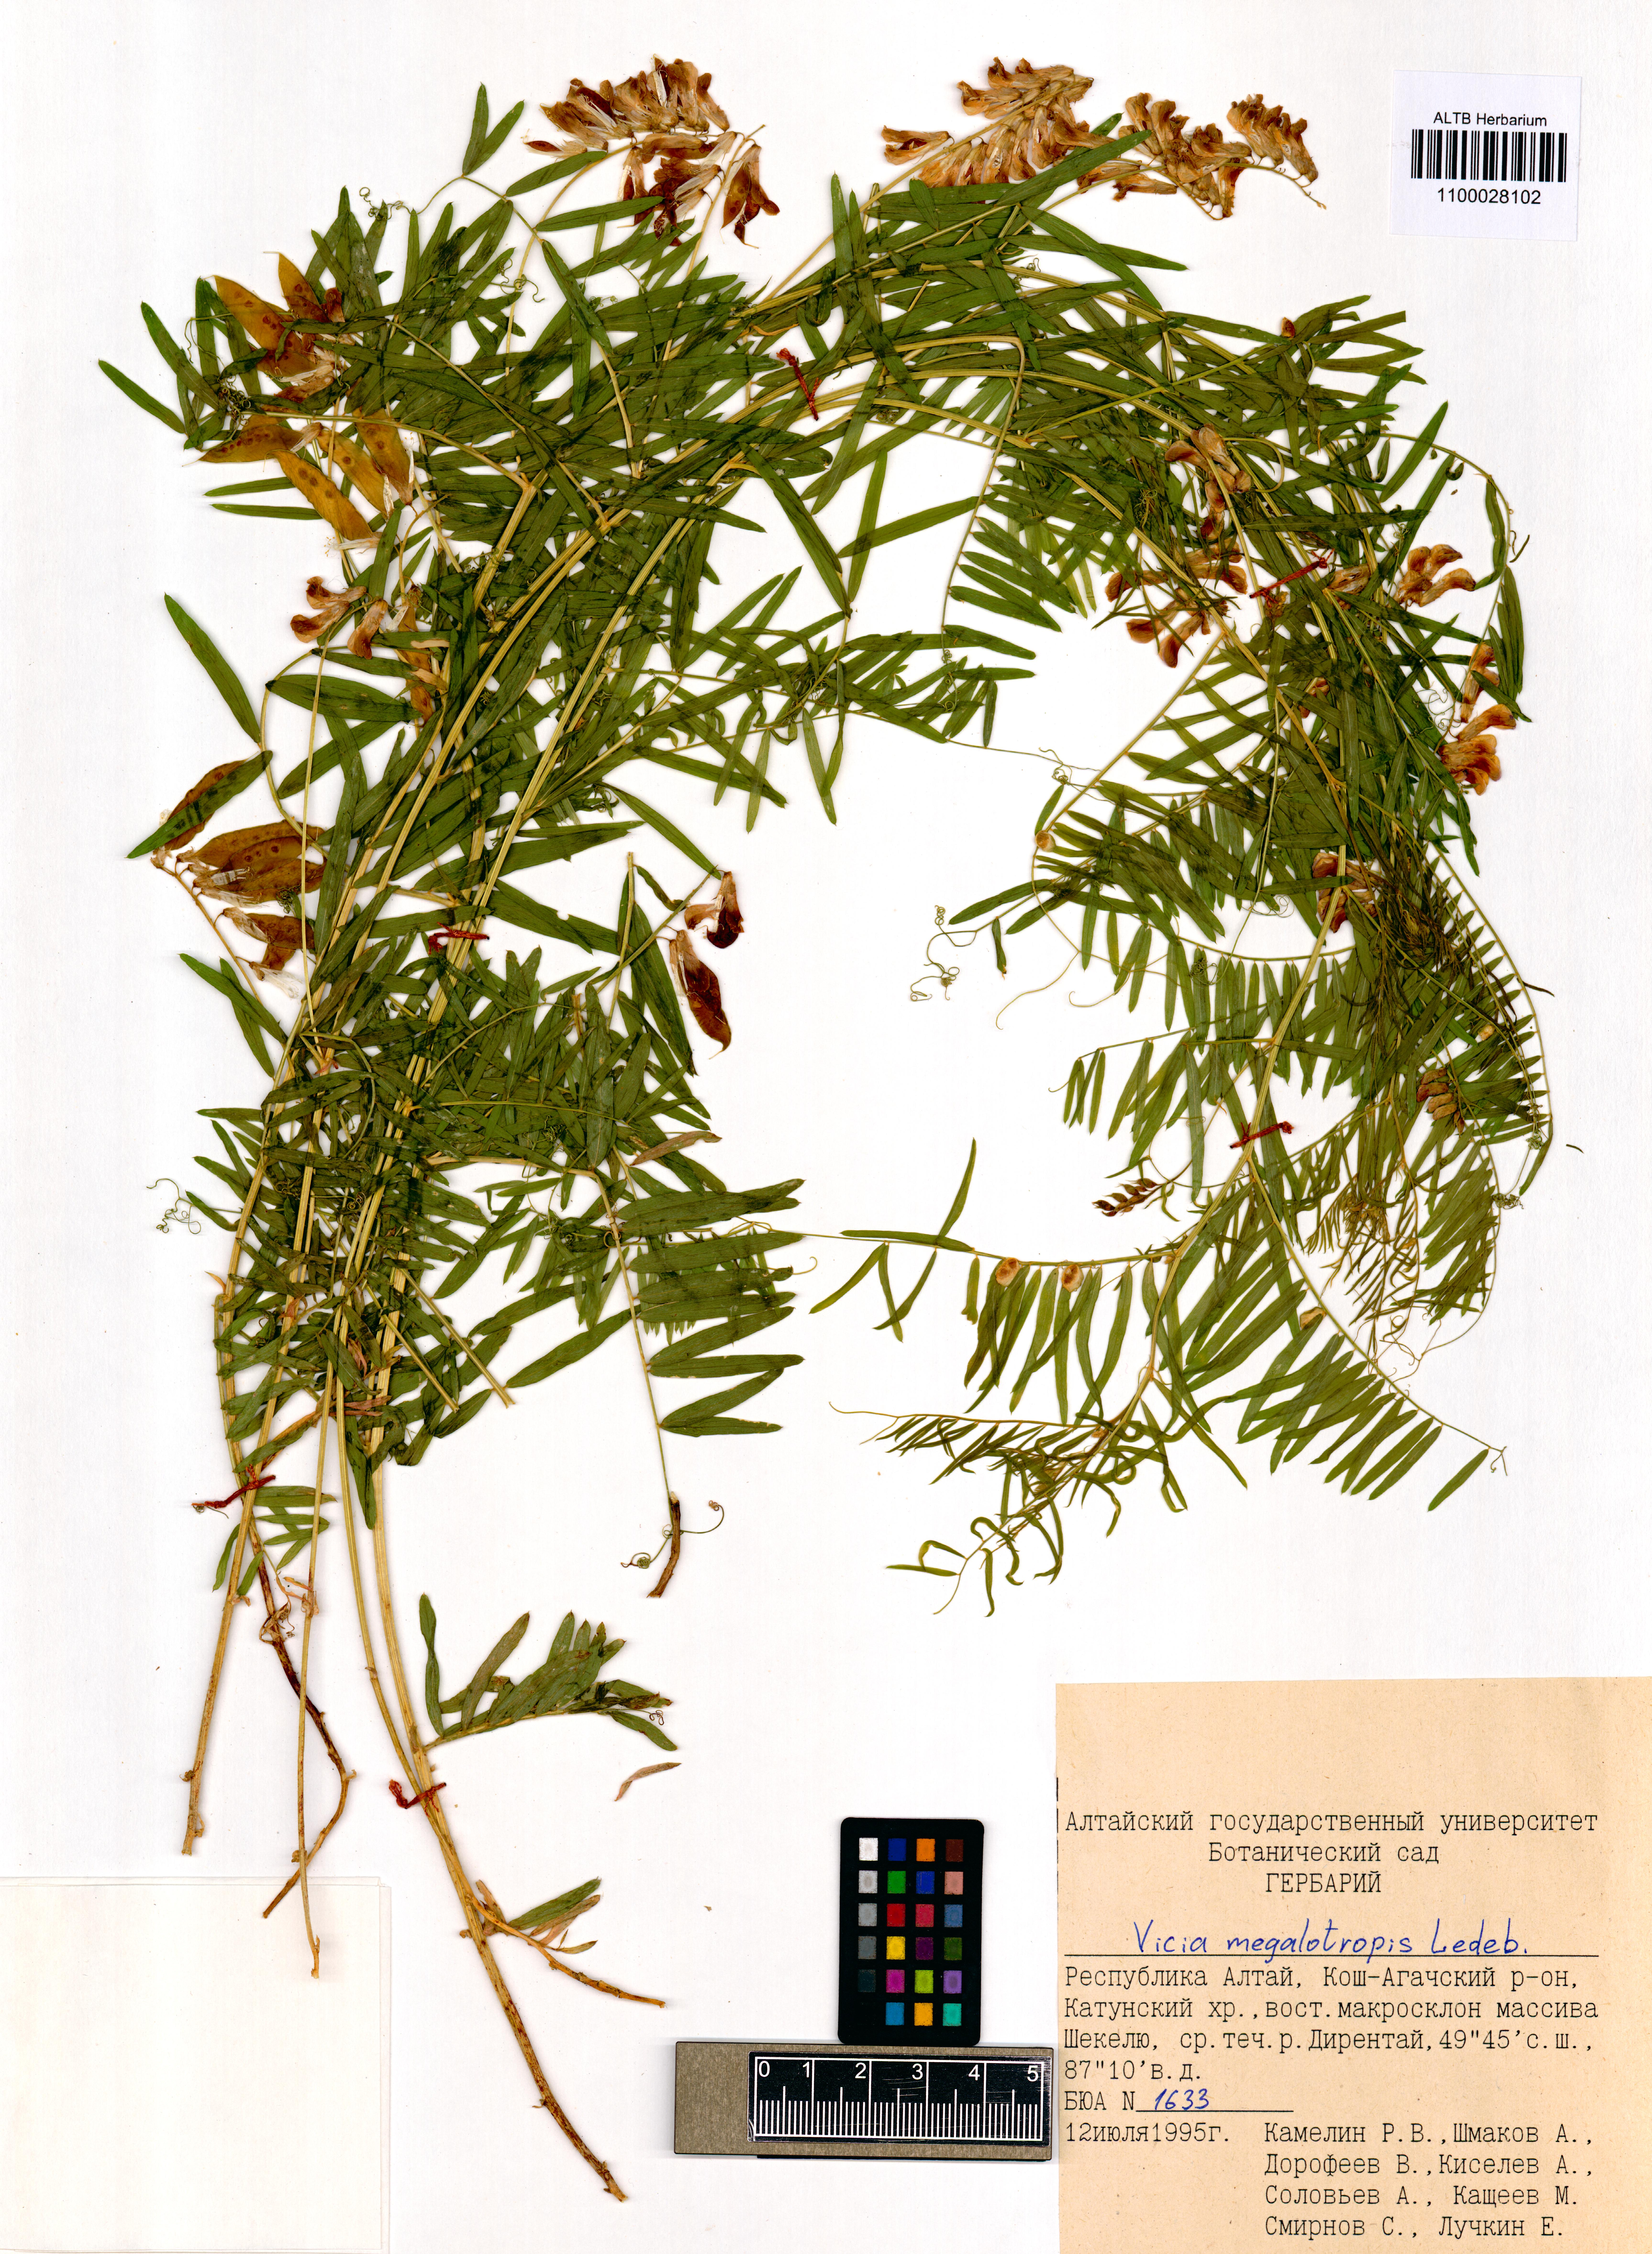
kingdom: Plantae
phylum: Tracheophyta
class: Magnoliopsida
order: Fabales
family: Fabaceae
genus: Vicia
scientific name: Vicia megalotropis
